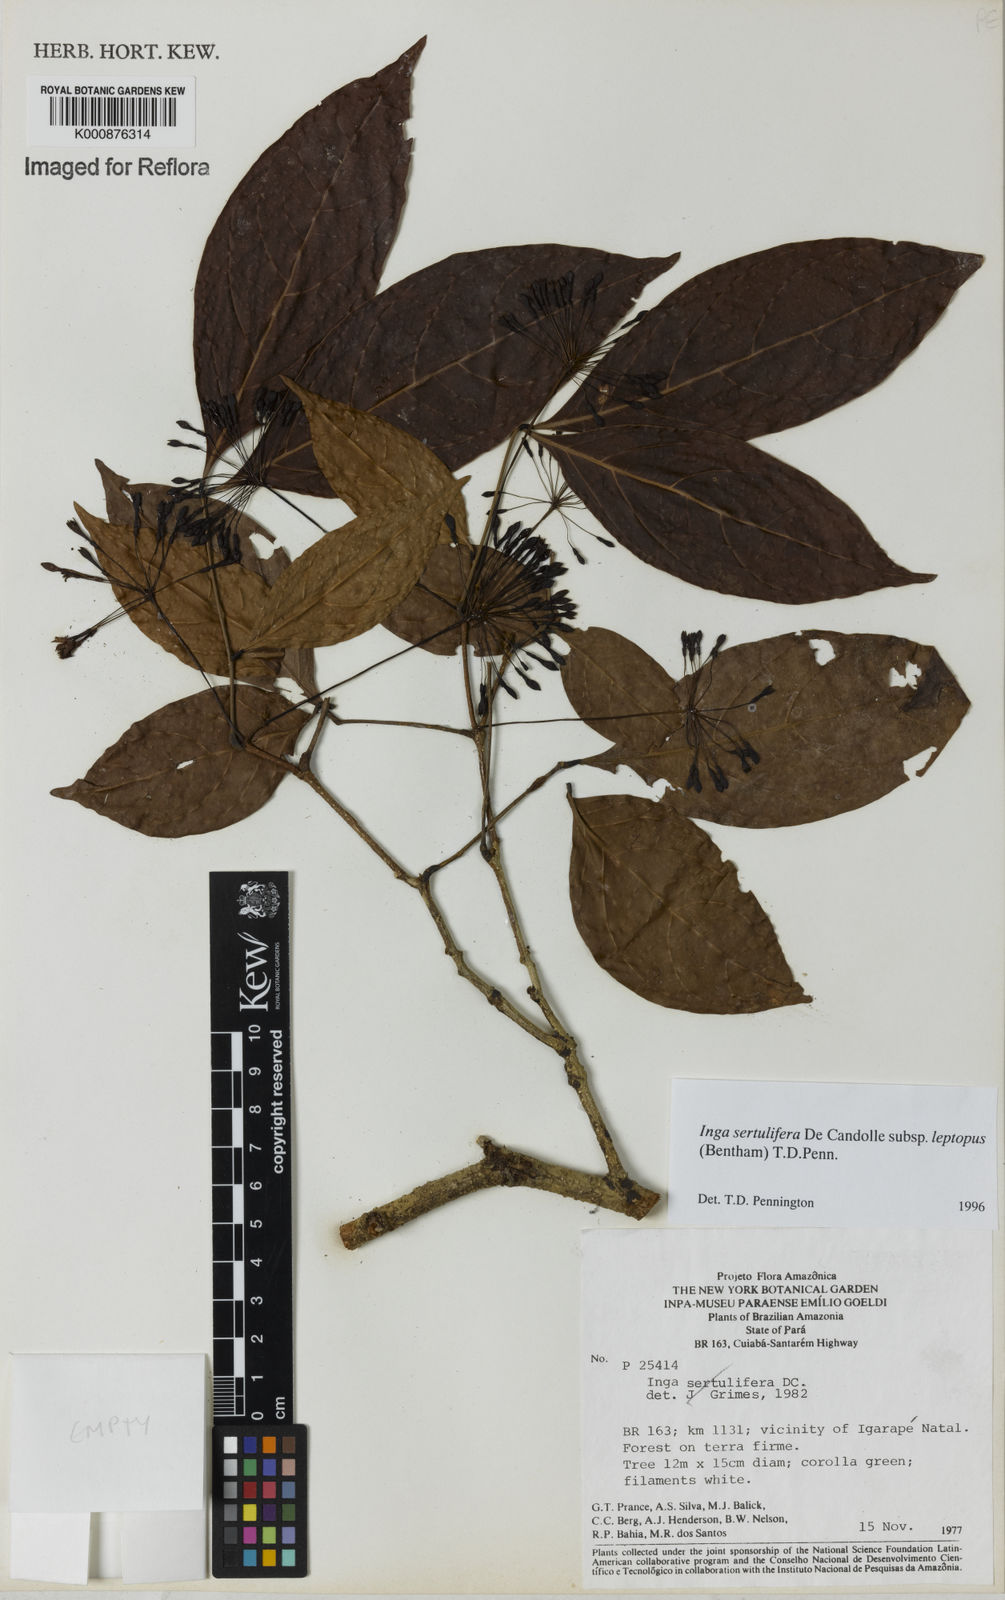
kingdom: Plantae
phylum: Tracheophyta
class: Magnoliopsida
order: Fabales
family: Fabaceae
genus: Inga
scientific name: Inga sertulifera
